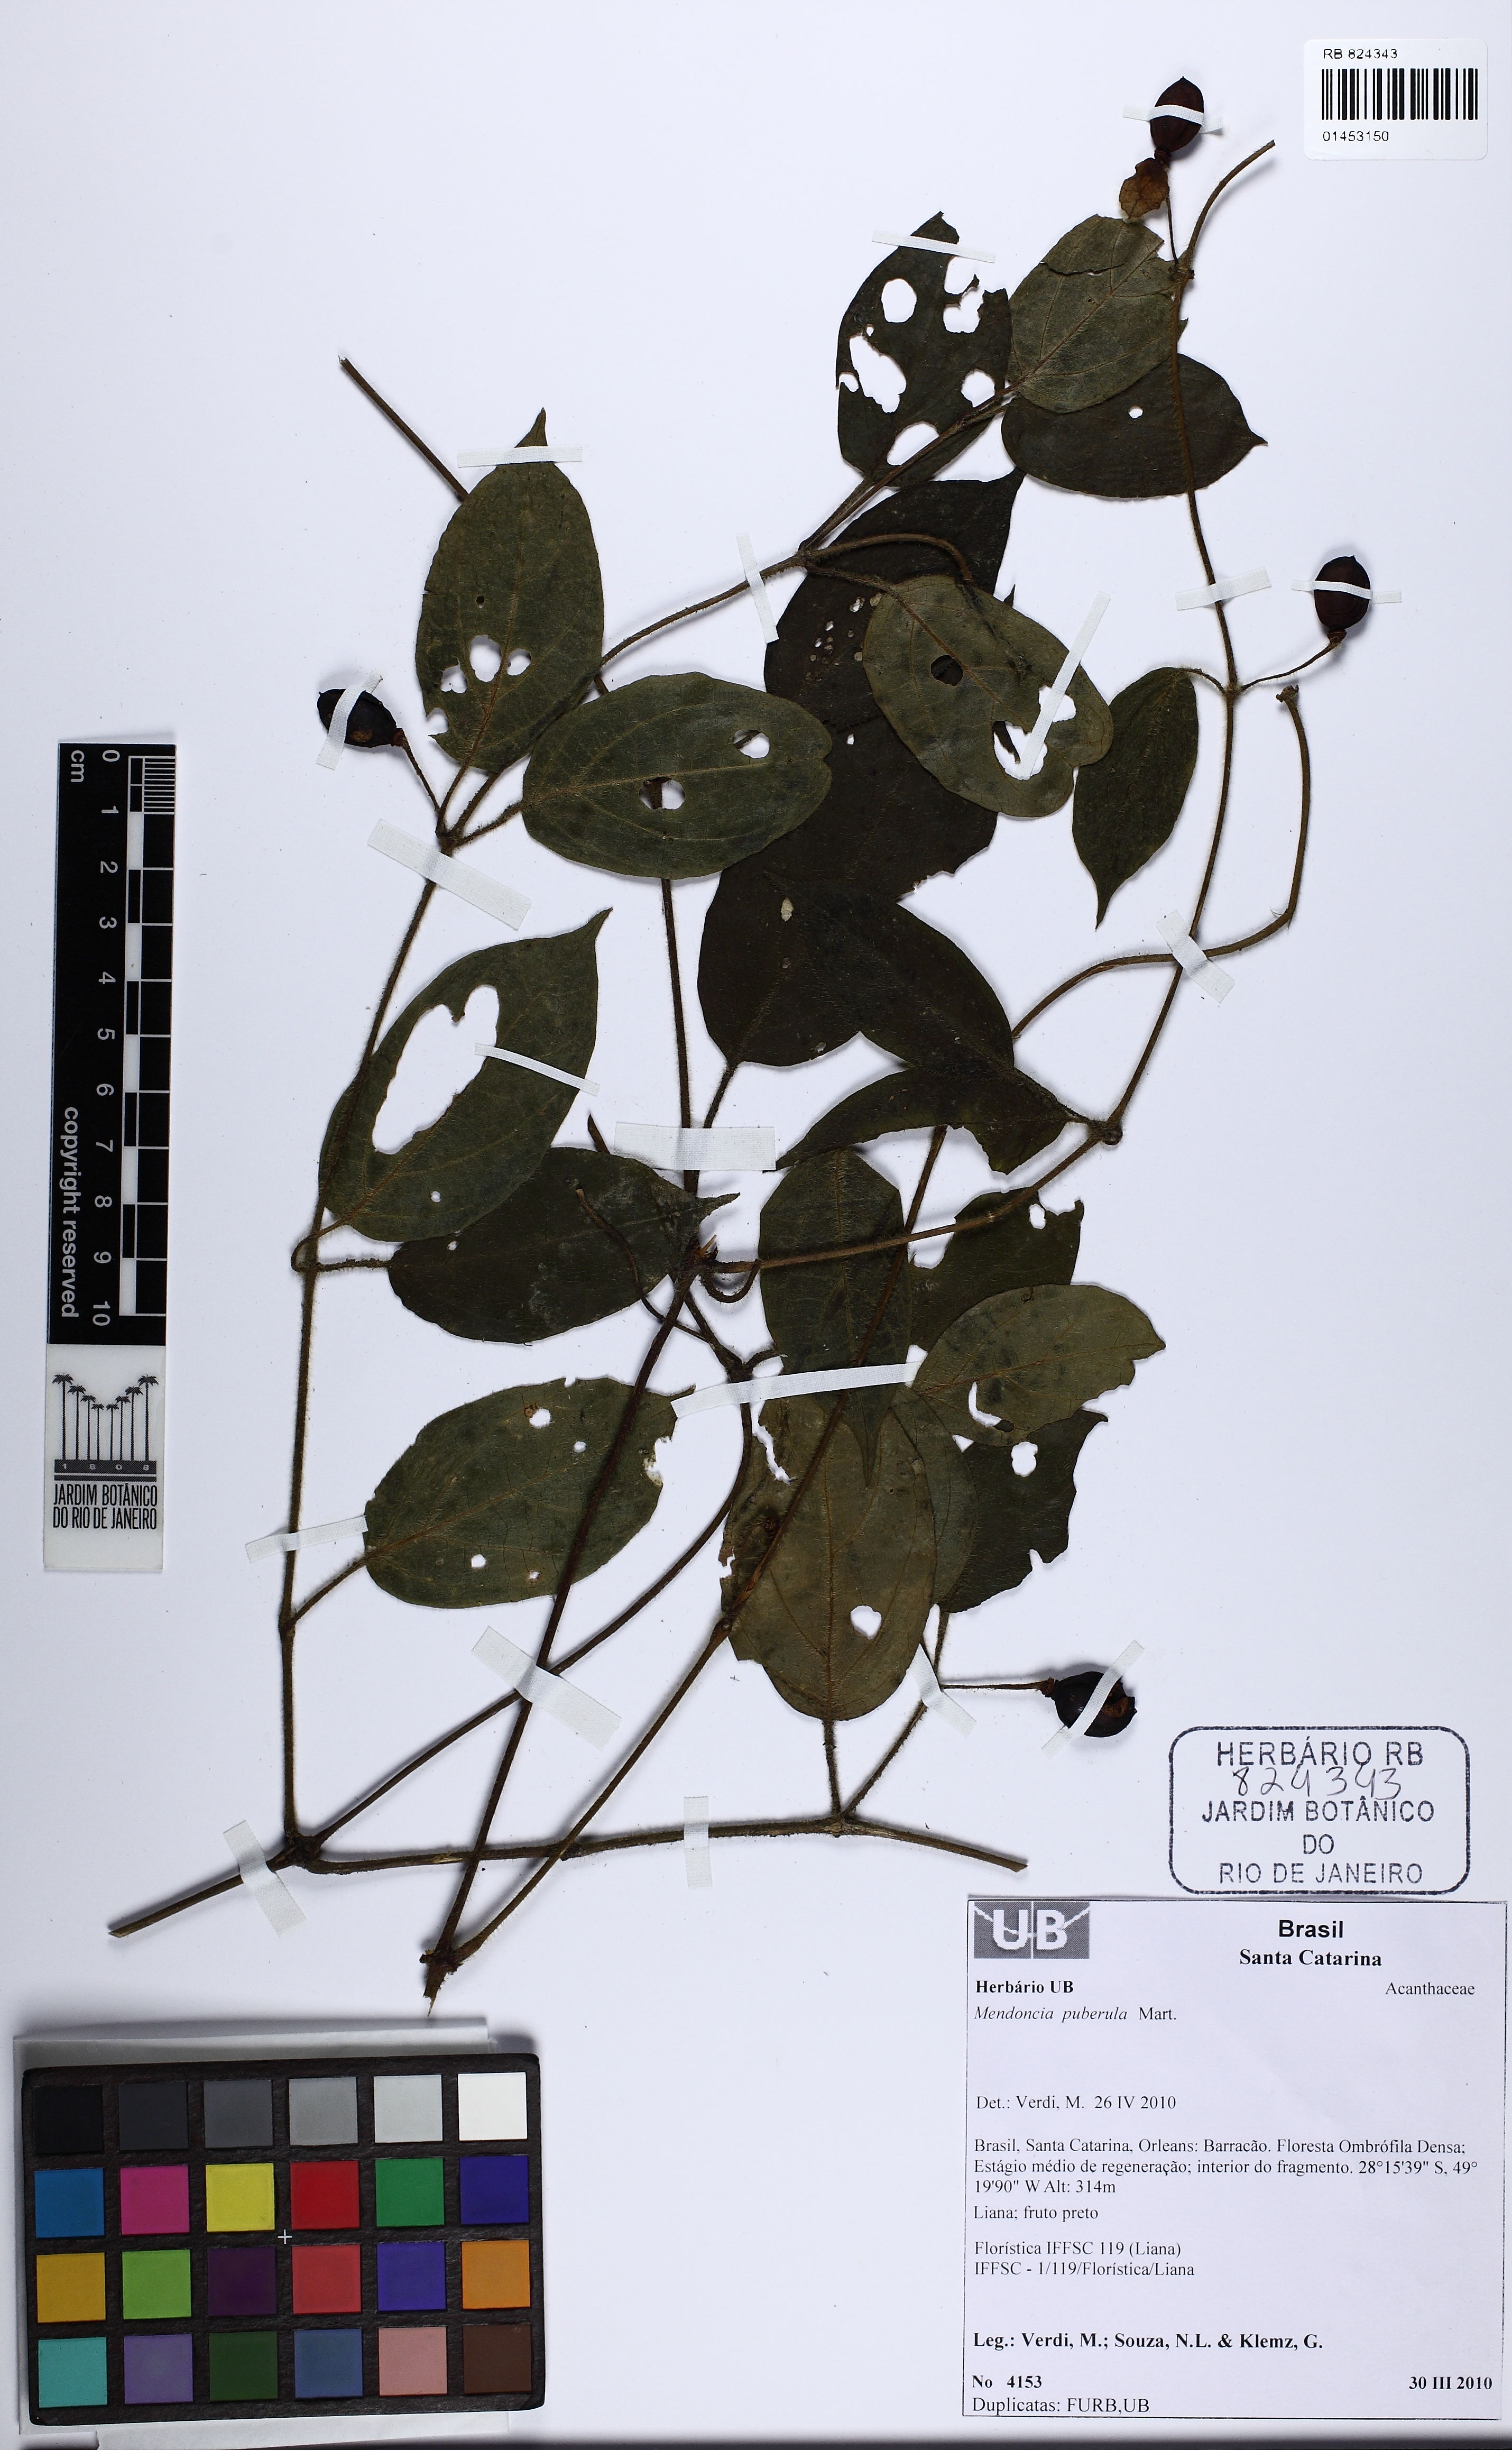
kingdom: Plantae
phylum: Tracheophyta
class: Magnoliopsida
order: Lamiales
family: Acanthaceae
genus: Mendoncia
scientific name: Mendoncia puberula
